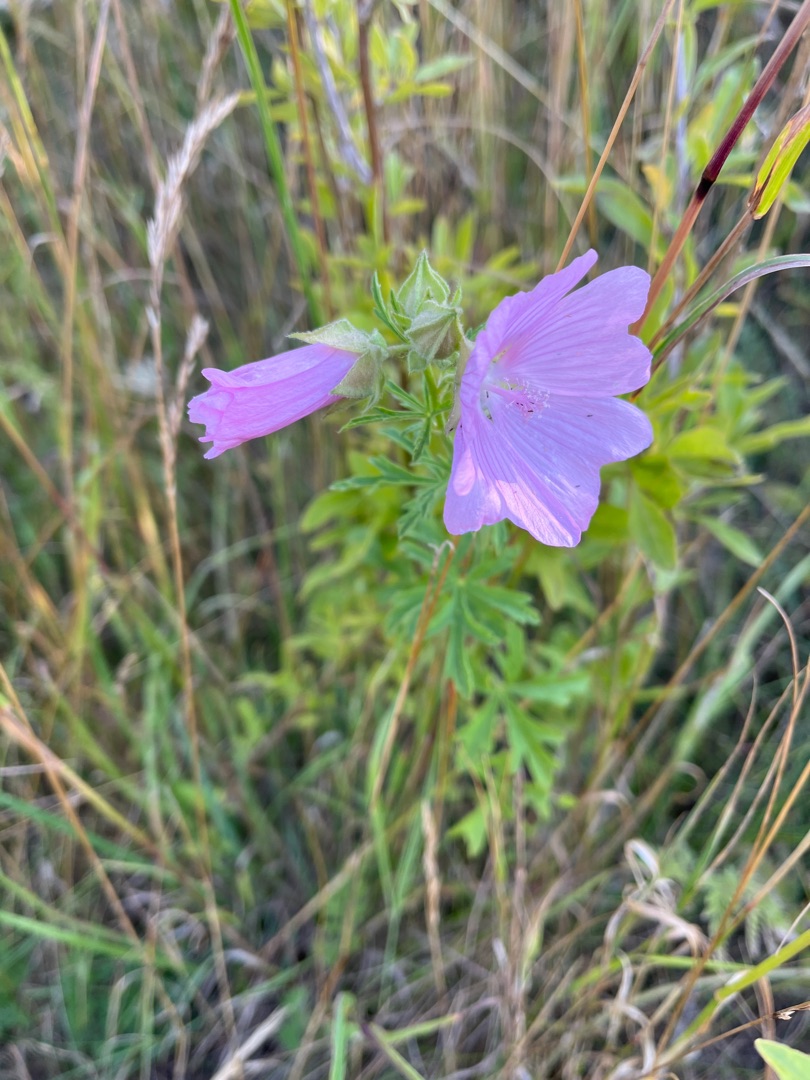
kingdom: Plantae
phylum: Tracheophyta
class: Magnoliopsida
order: Malvales
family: Malvaceae
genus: Malva
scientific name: Malva alcea
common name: Rosen-katost
